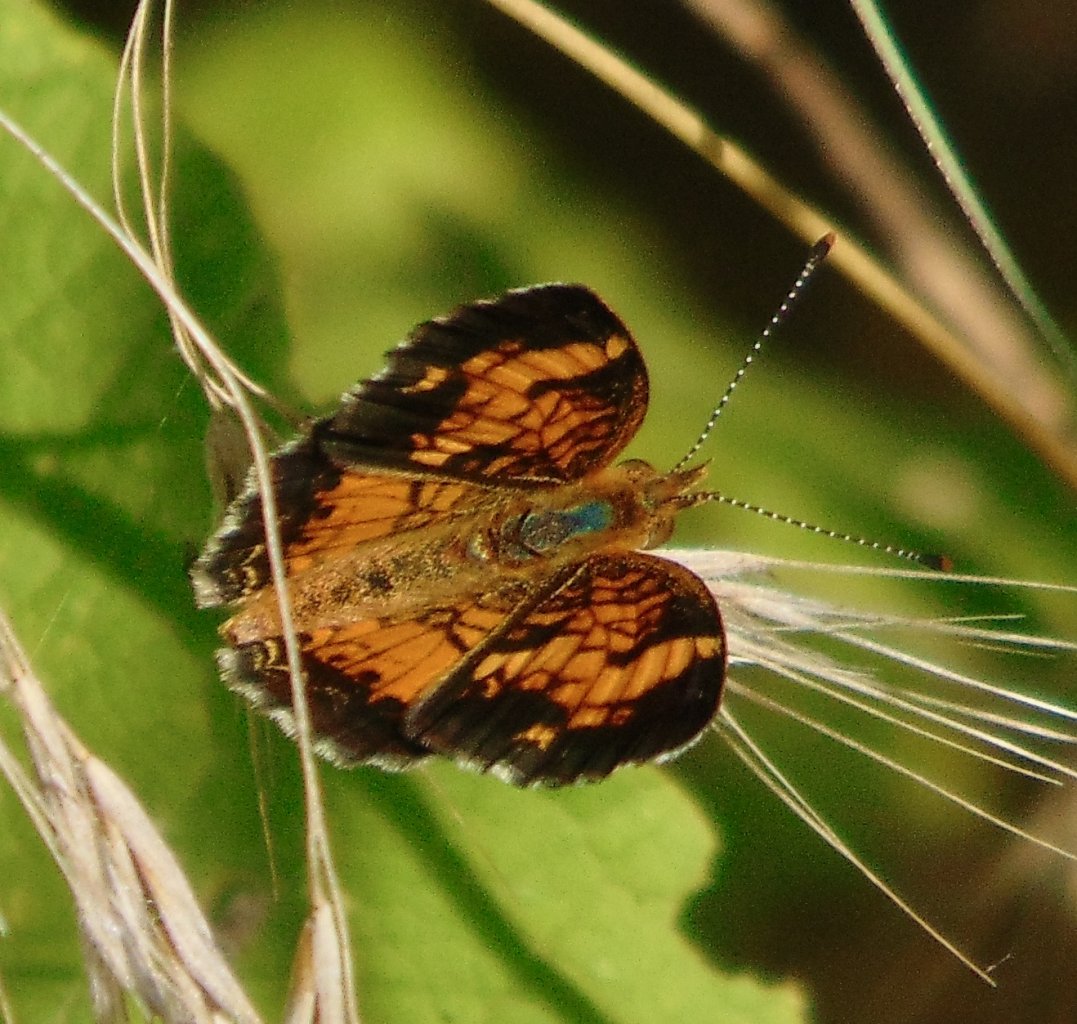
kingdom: Animalia
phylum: Arthropoda
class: Insecta
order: Lepidoptera
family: Nymphalidae
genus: Phyciodes
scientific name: Phyciodes tharos
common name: Pearl Crescent
